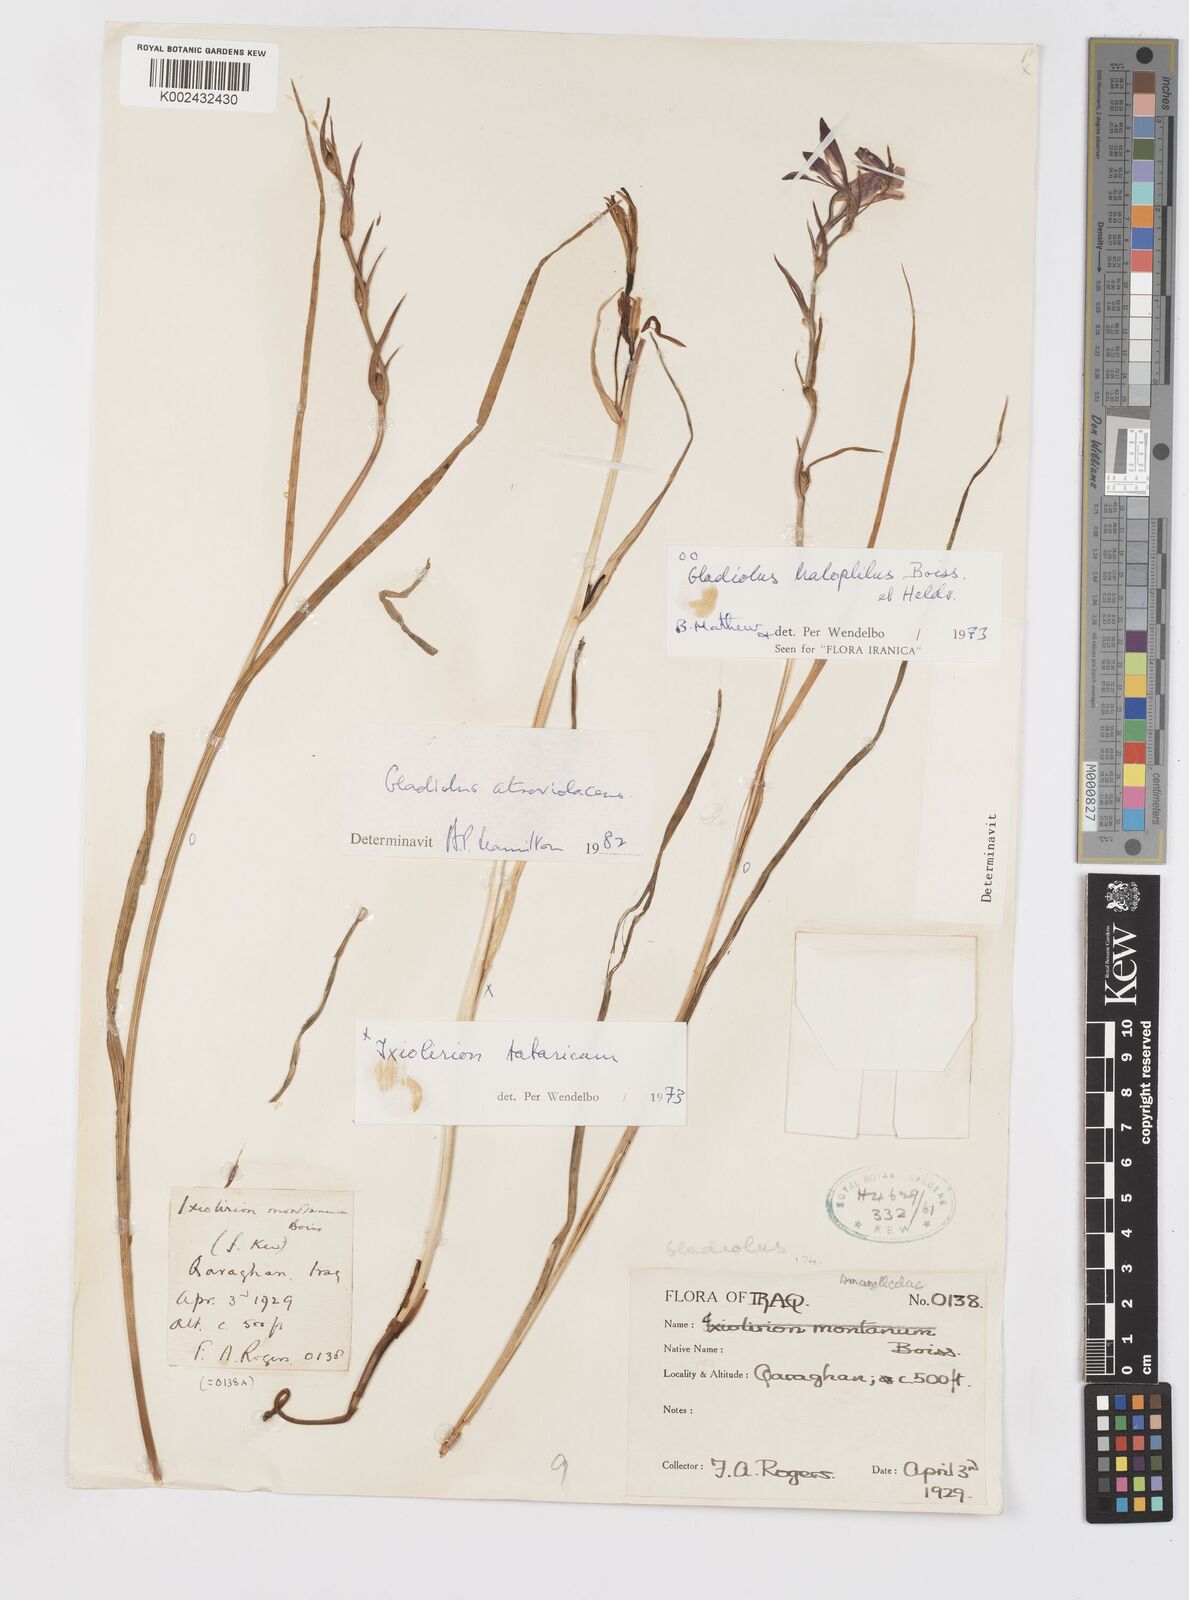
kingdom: Plantae
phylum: Tracheophyta
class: Liliopsida
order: Asparagales
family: Iridaceae
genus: Gladiolus
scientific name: Gladiolus atroviolaceus
